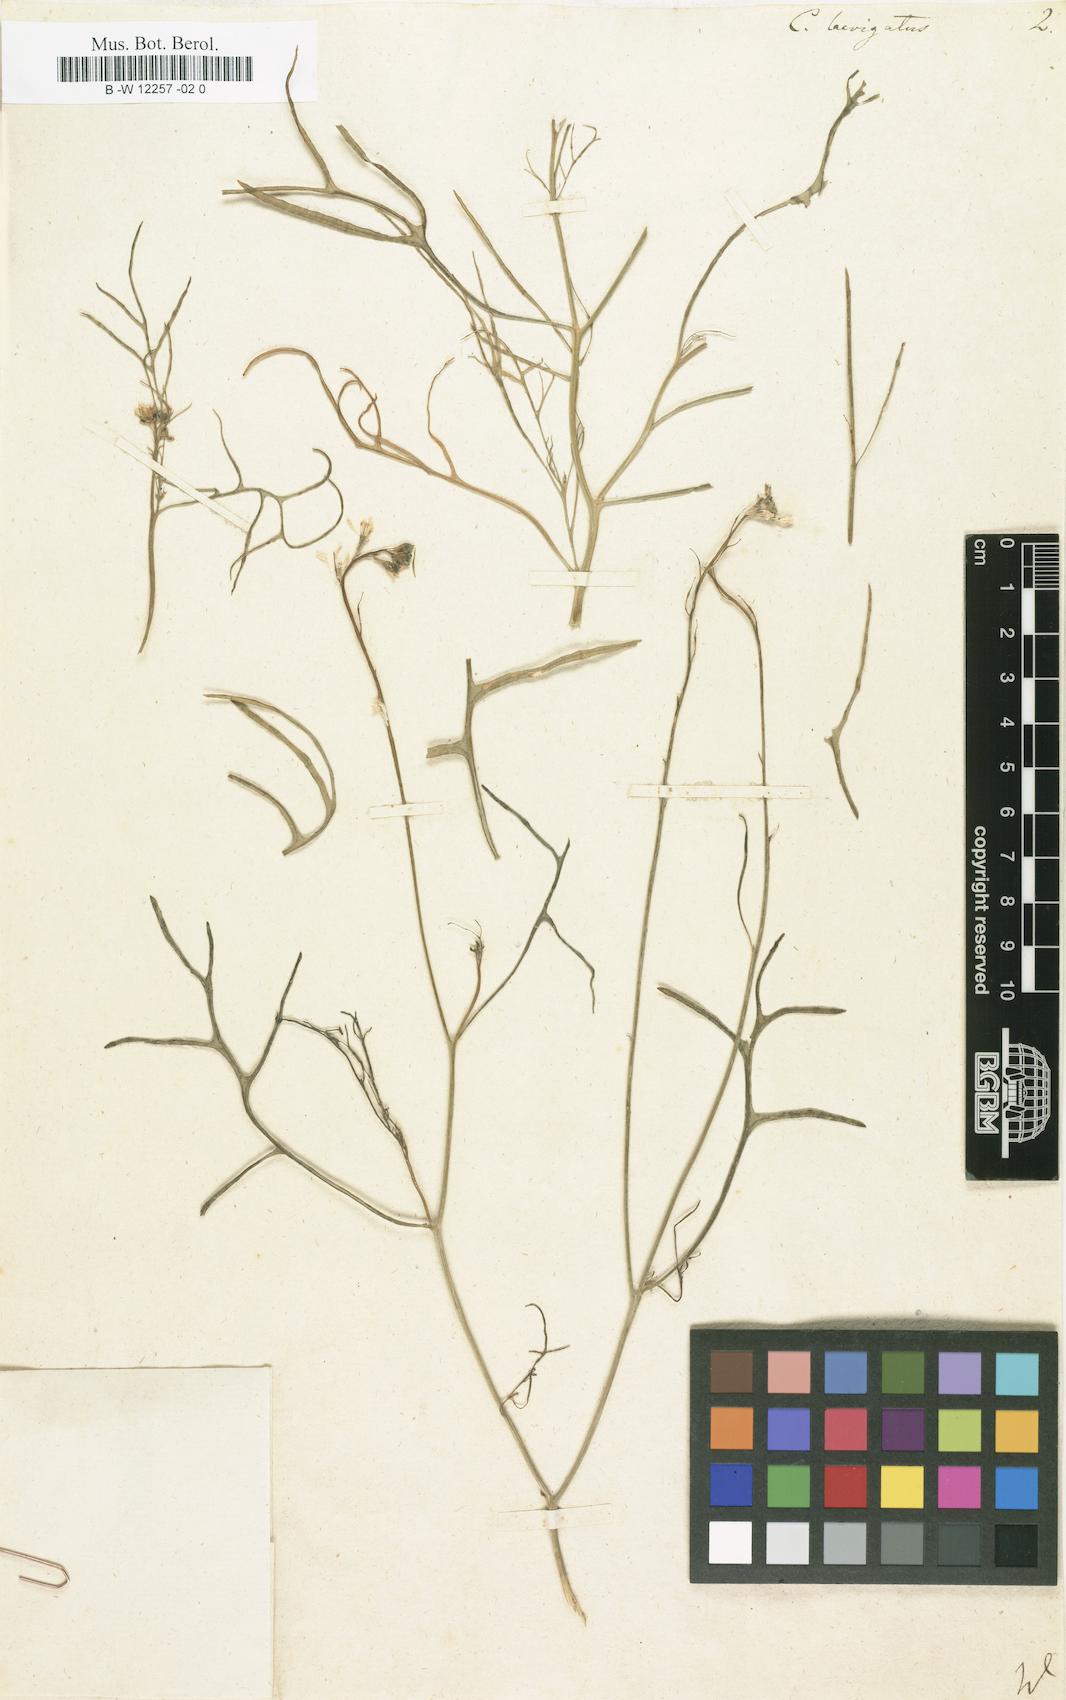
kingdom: Plantae
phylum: Tracheophyta
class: Magnoliopsida
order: Brassicales
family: Brassicaceae
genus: Erucaria
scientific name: Erucaria hispanica
